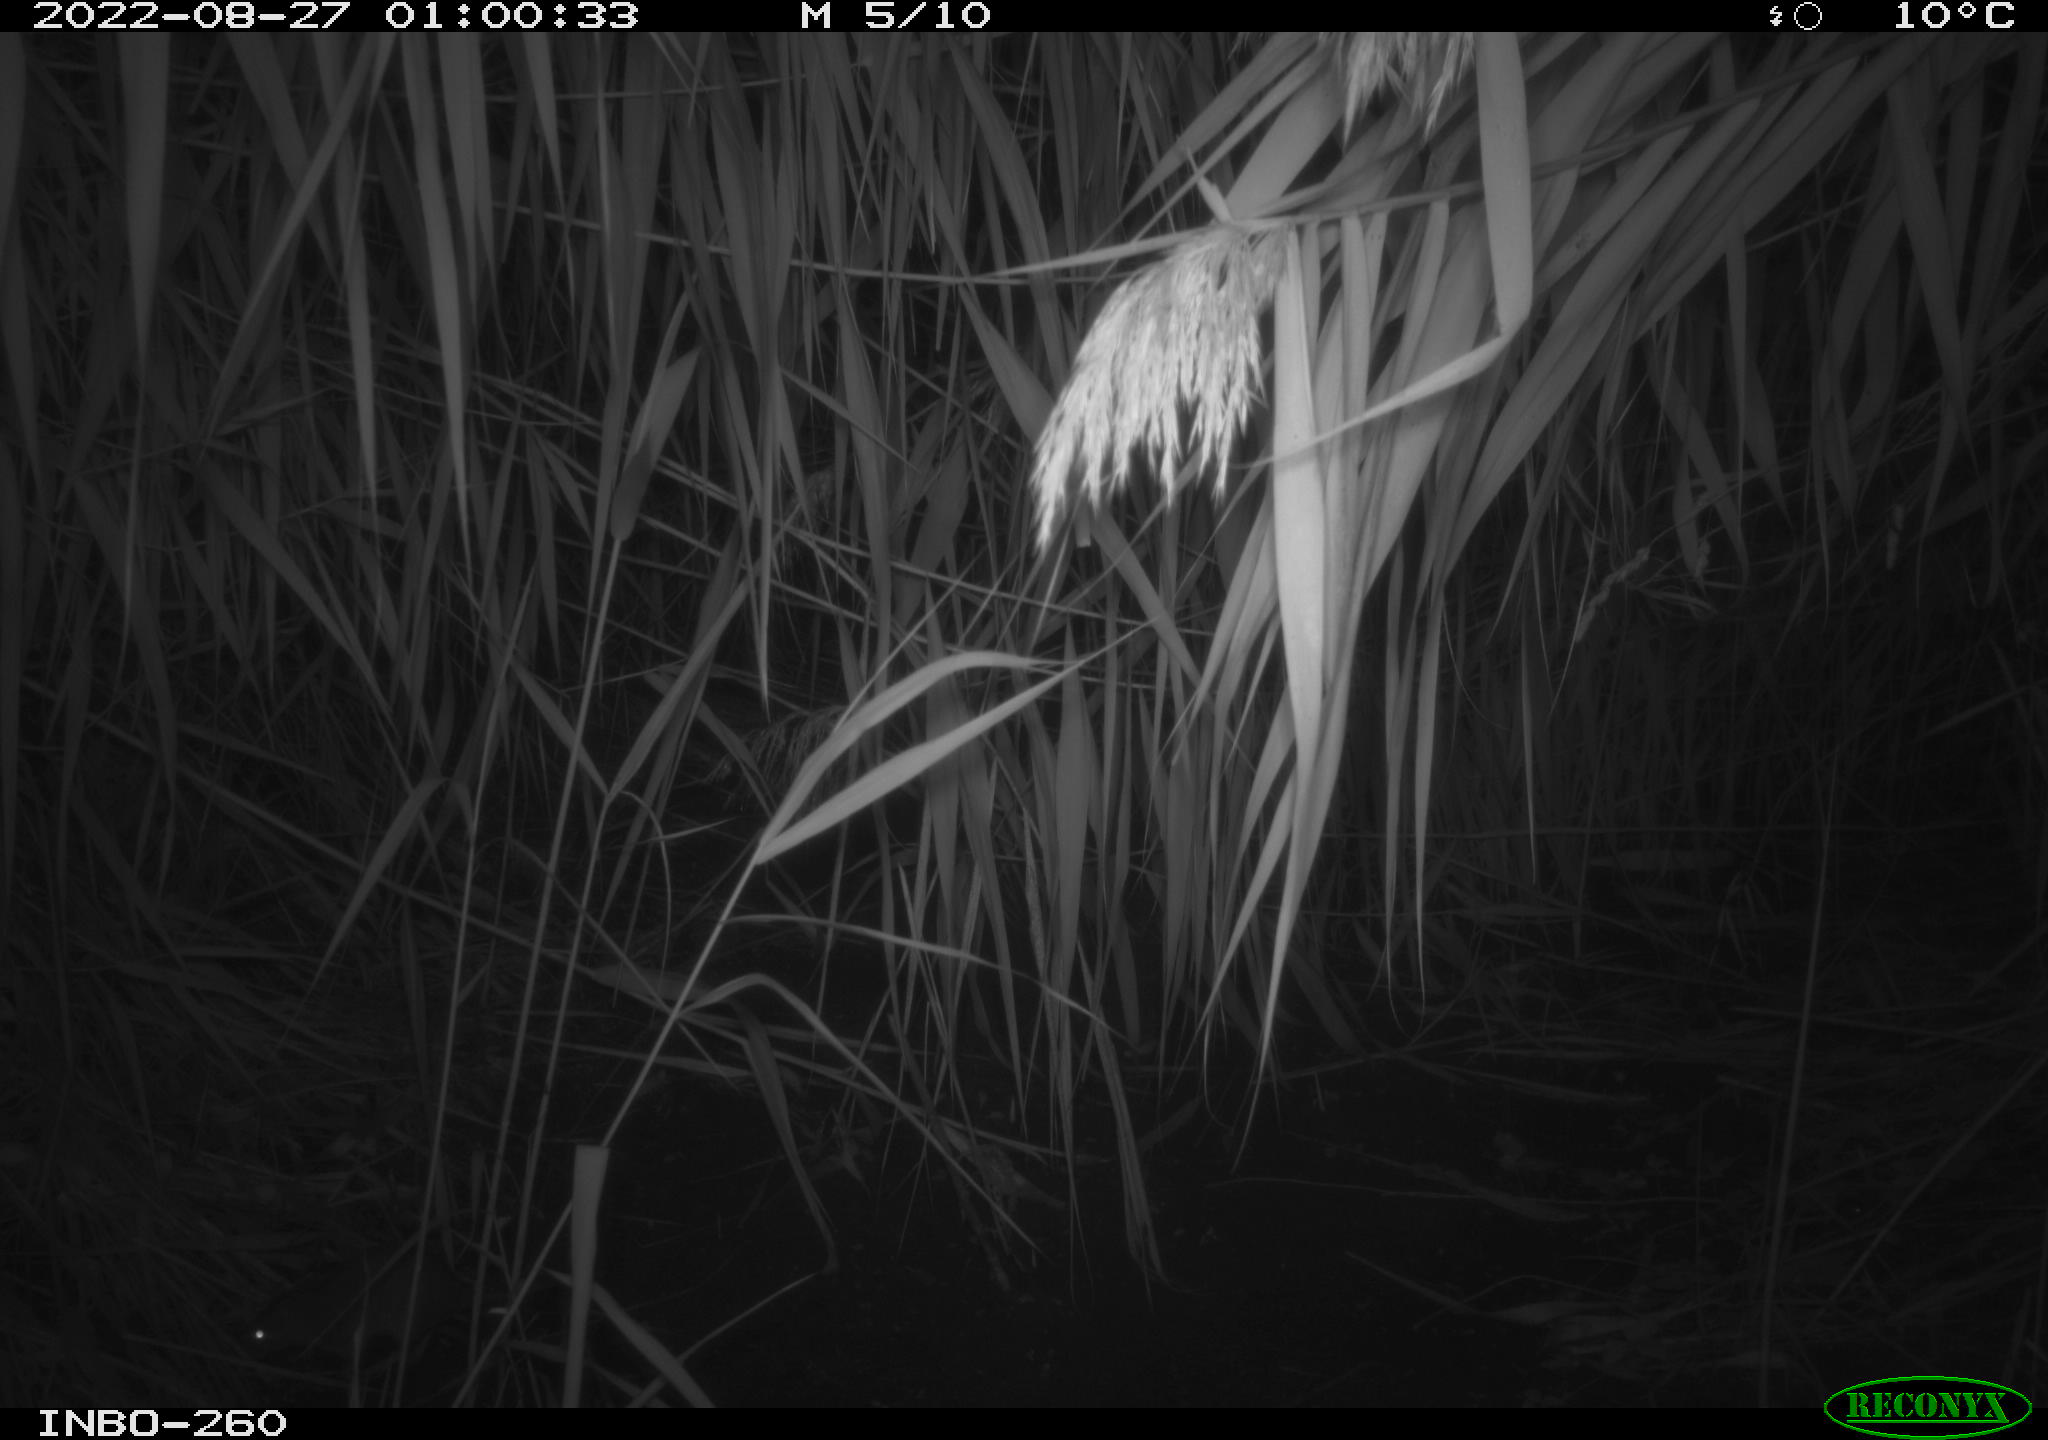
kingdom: Animalia
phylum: Chordata
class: Mammalia
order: Rodentia
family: Muridae
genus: Rattus
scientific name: Rattus norvegicus
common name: Brown rat
